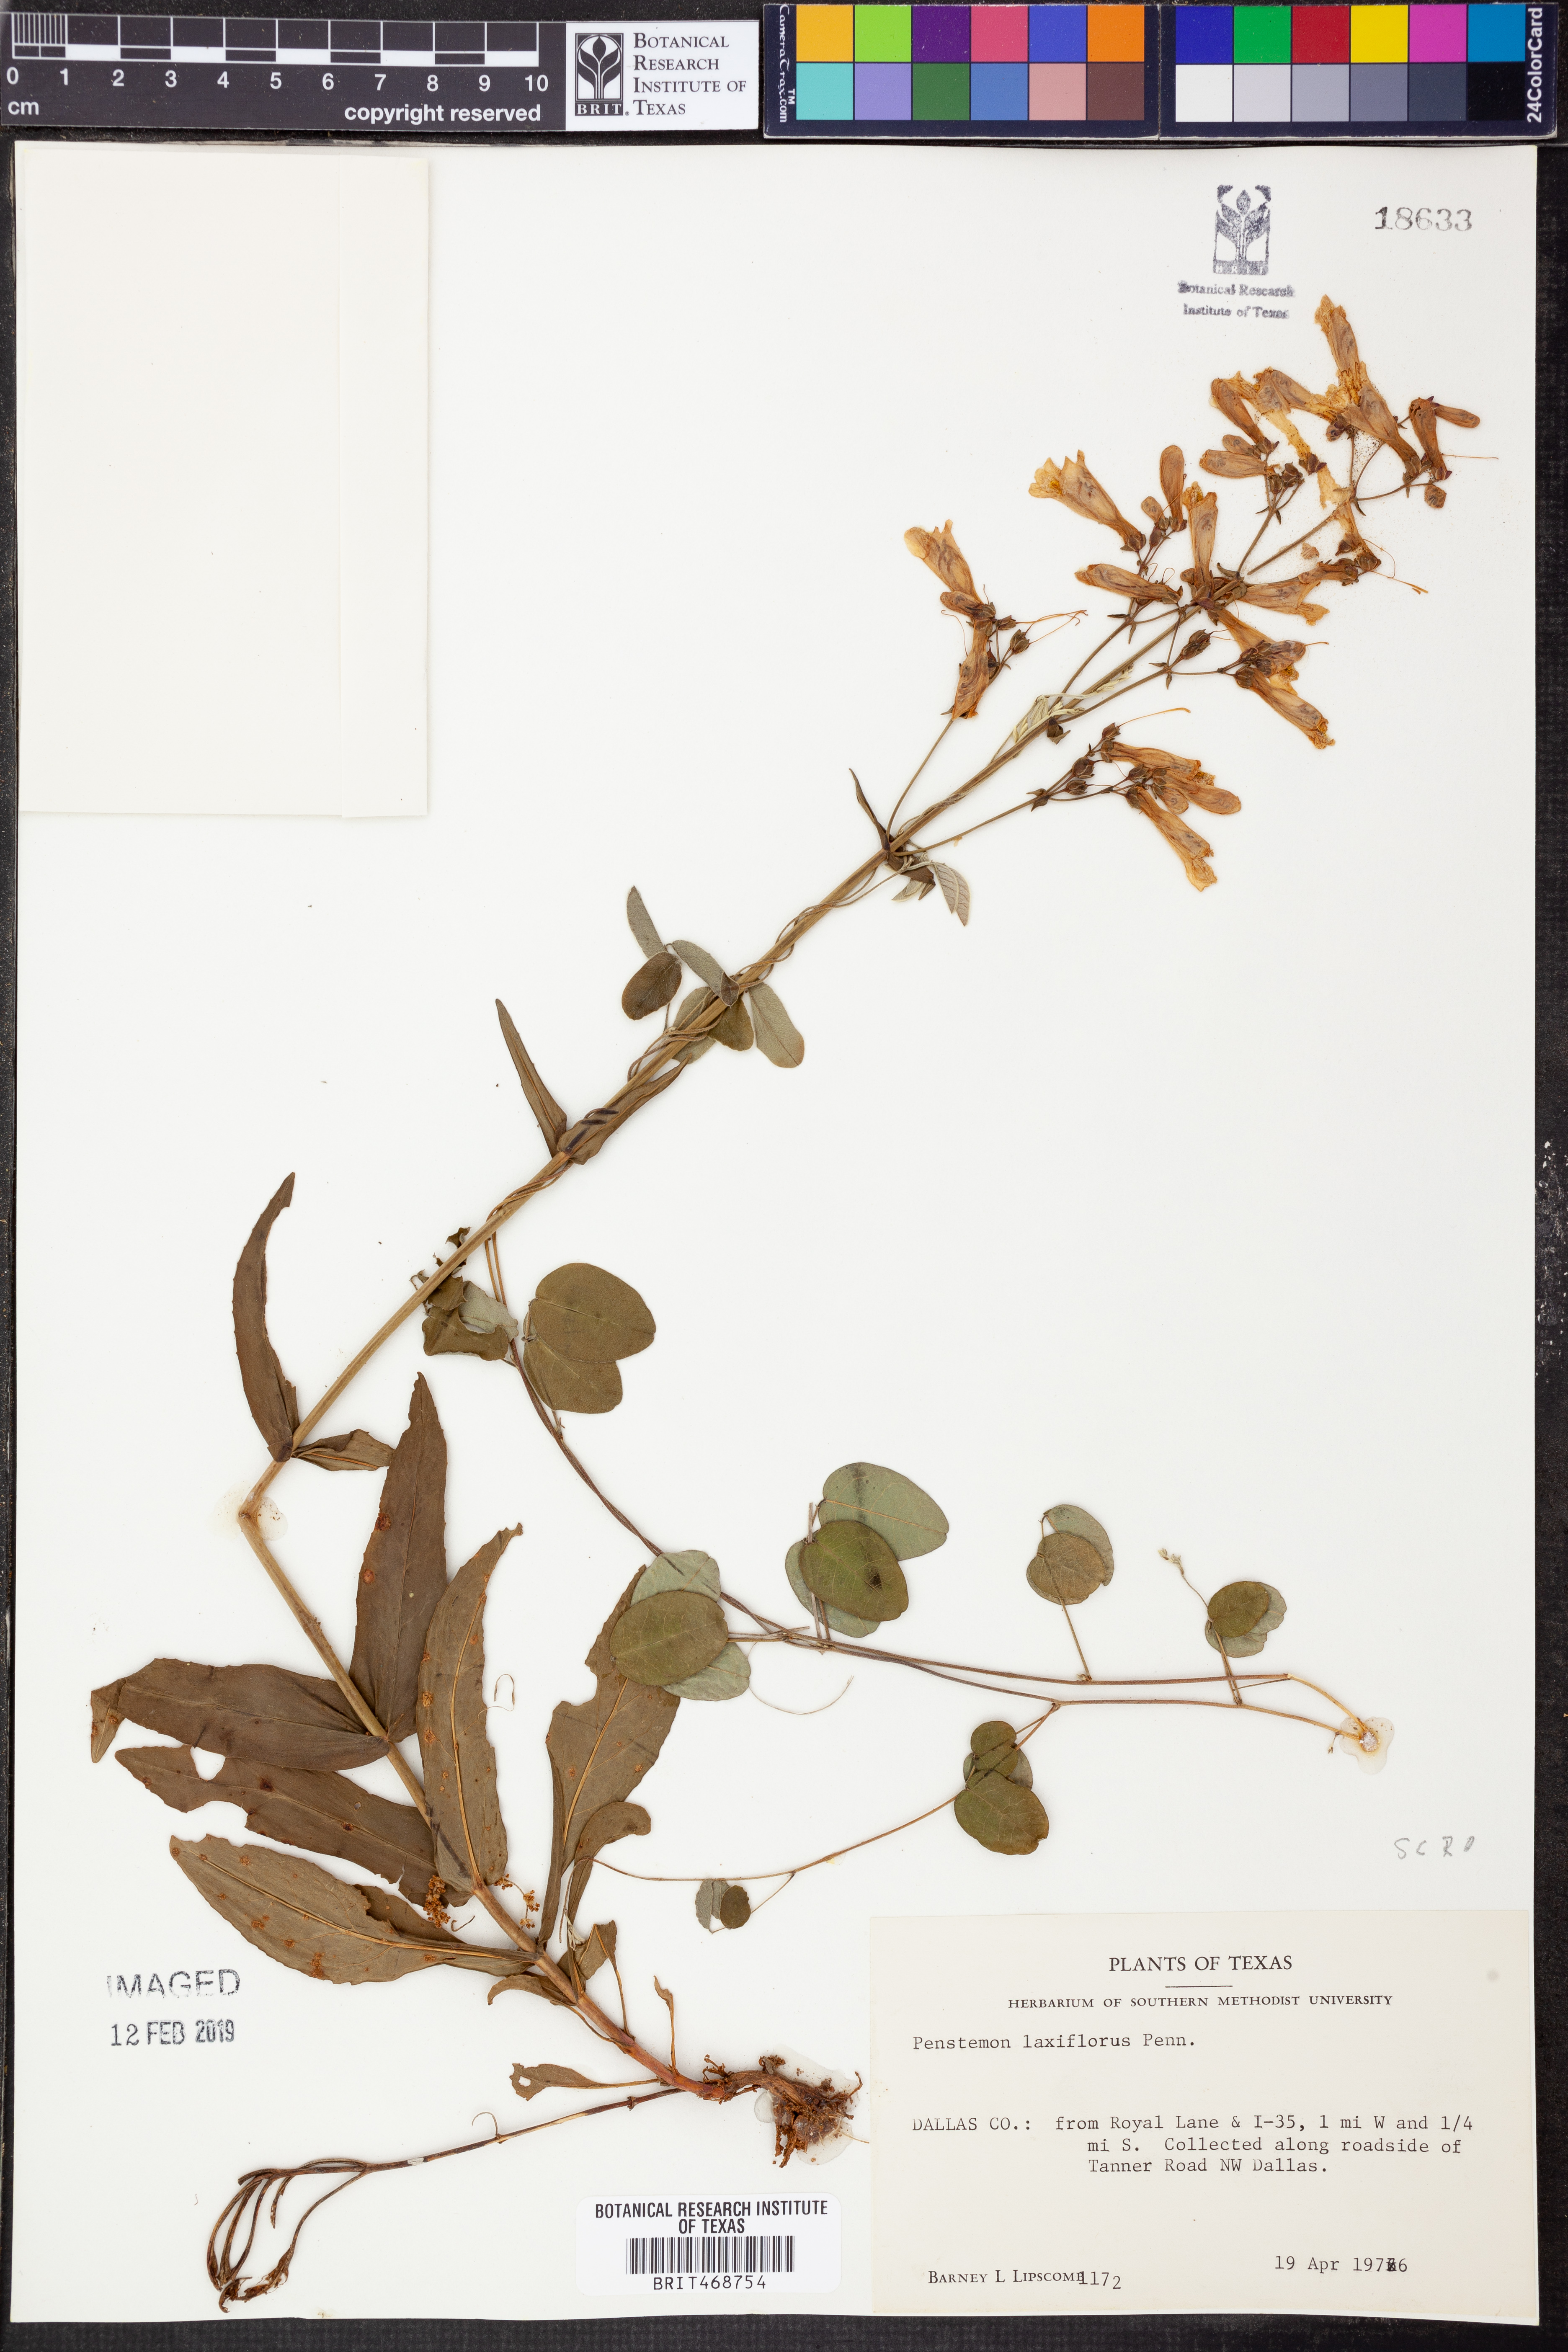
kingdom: Plantae
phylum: Tracheophyta
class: Magnoliopsida
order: Lamiales
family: Plantaginaceae
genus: Penstemon
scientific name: Penstemon laxiflorus
